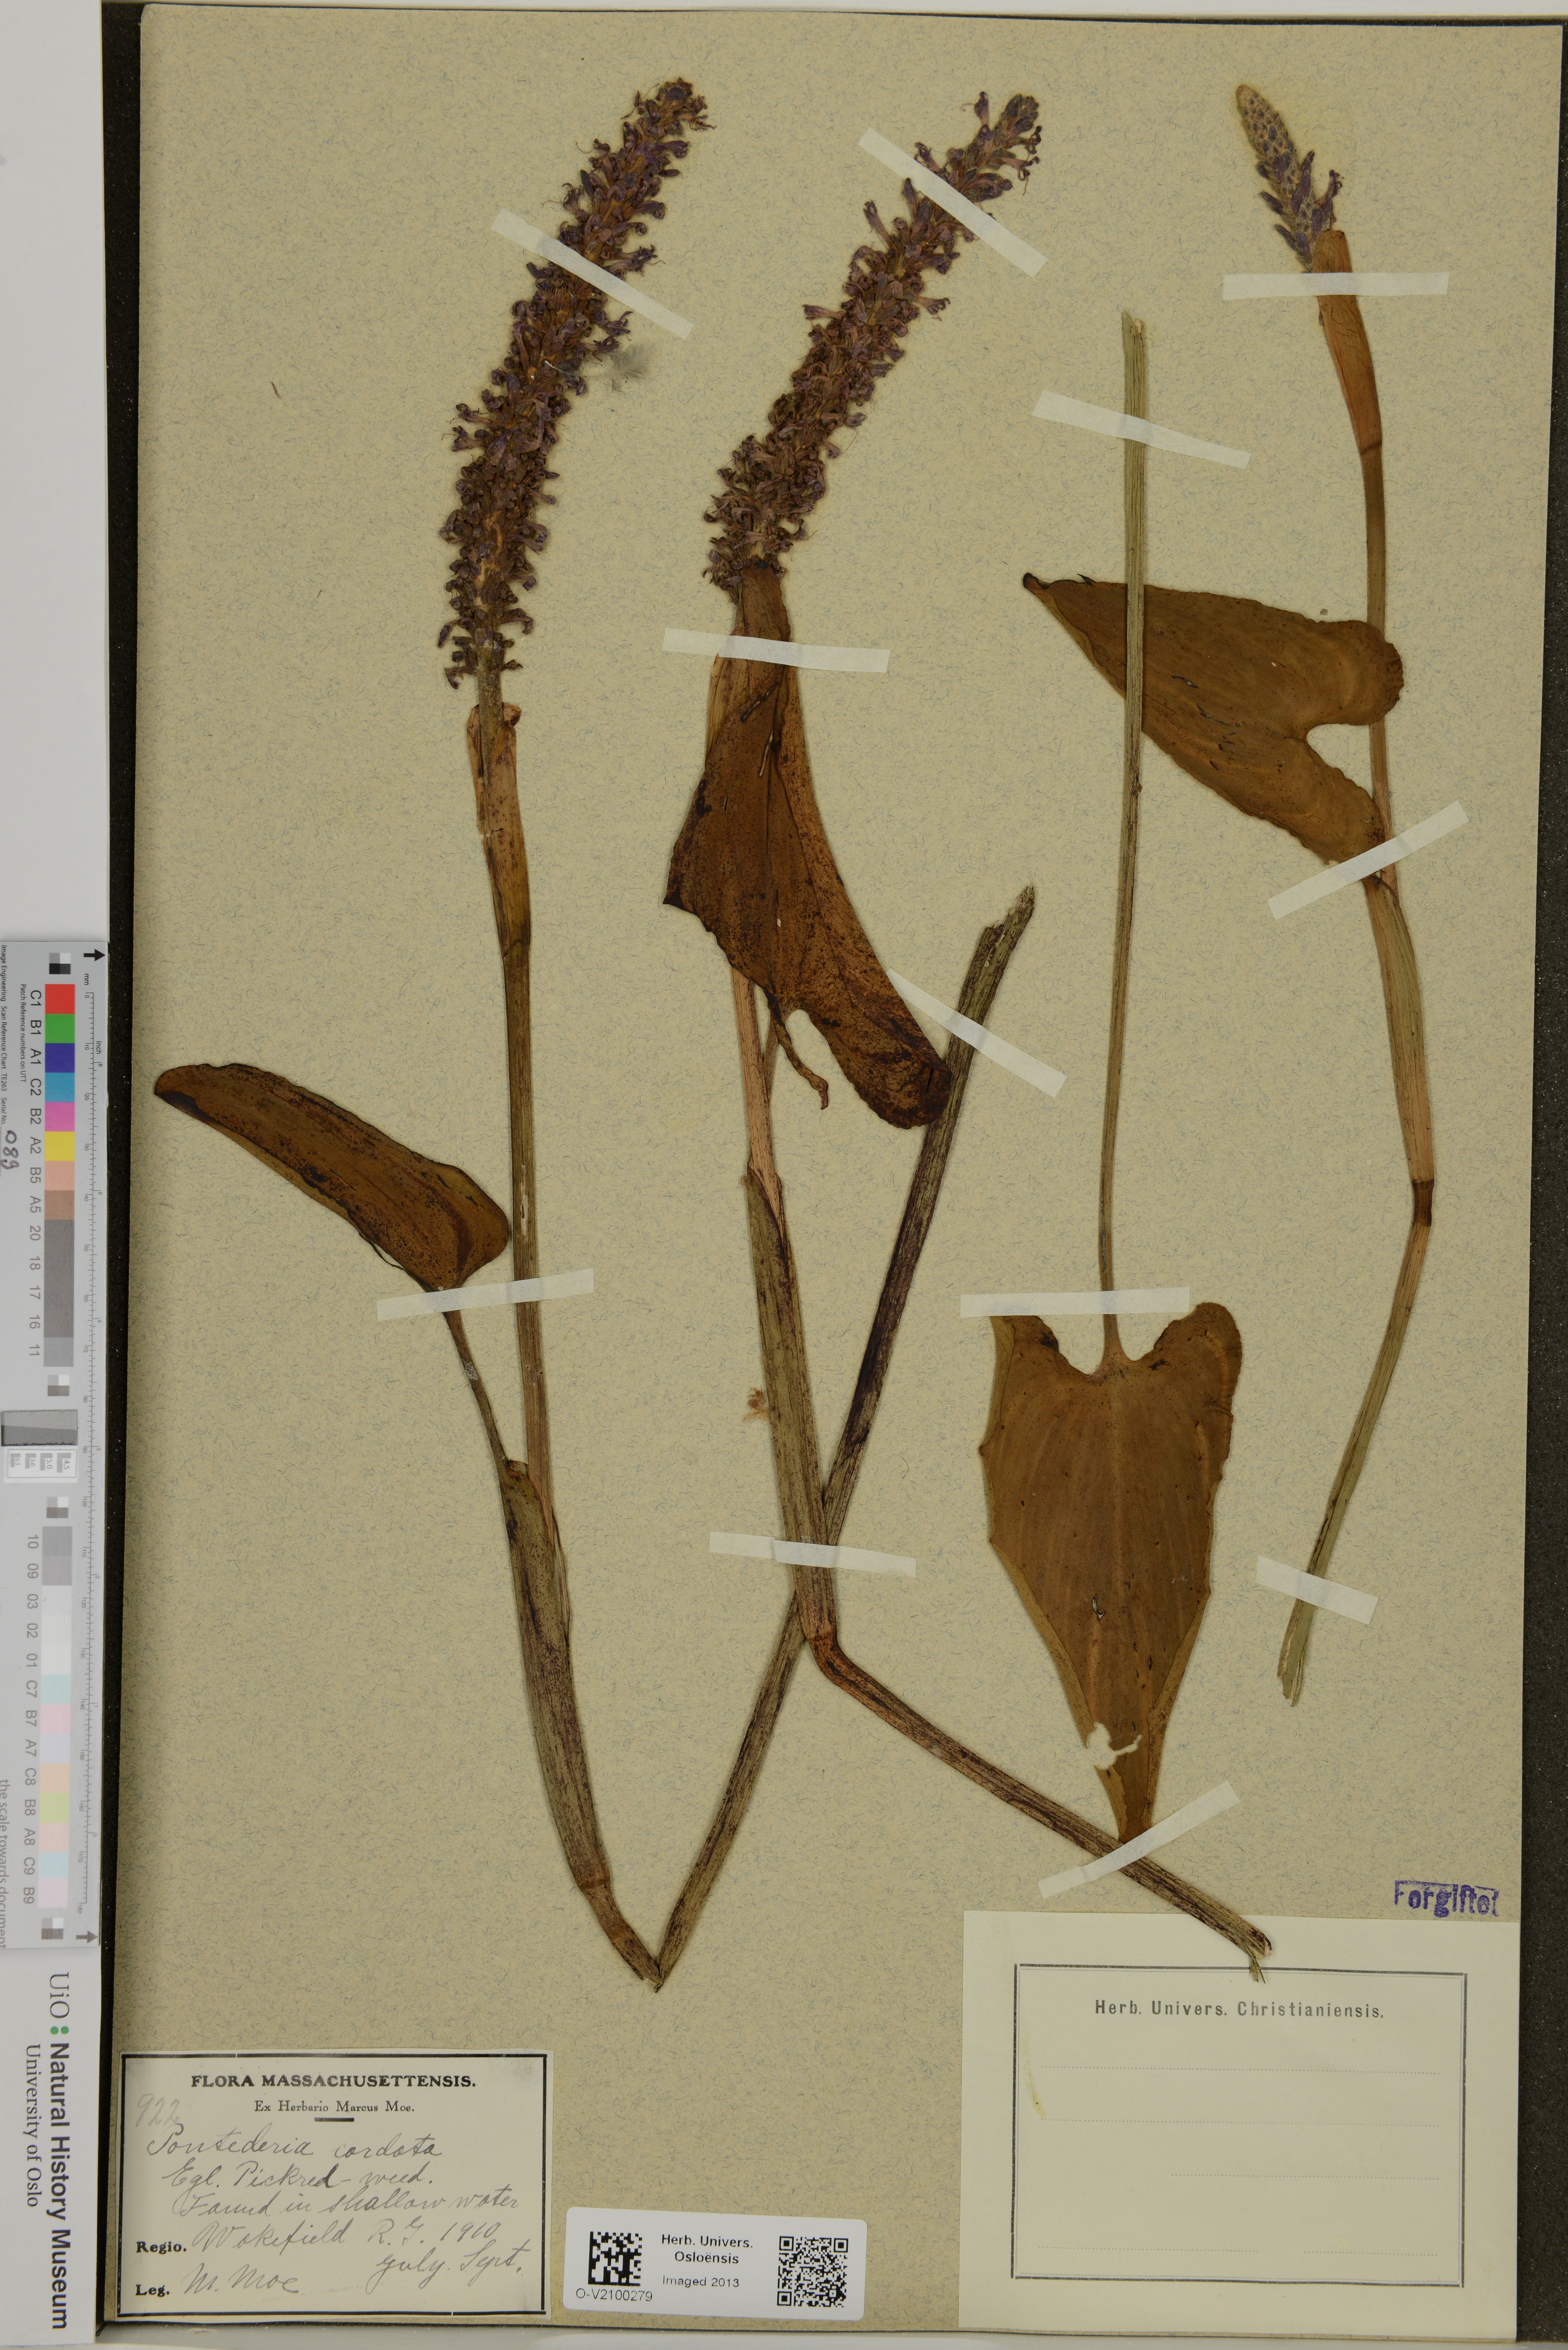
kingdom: Plantae
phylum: Tracheophyta
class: Liliopsida
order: Commelinales
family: Pontederiaceae
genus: Pontederia
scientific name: Pontederia cordata
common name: Pickerelweed
